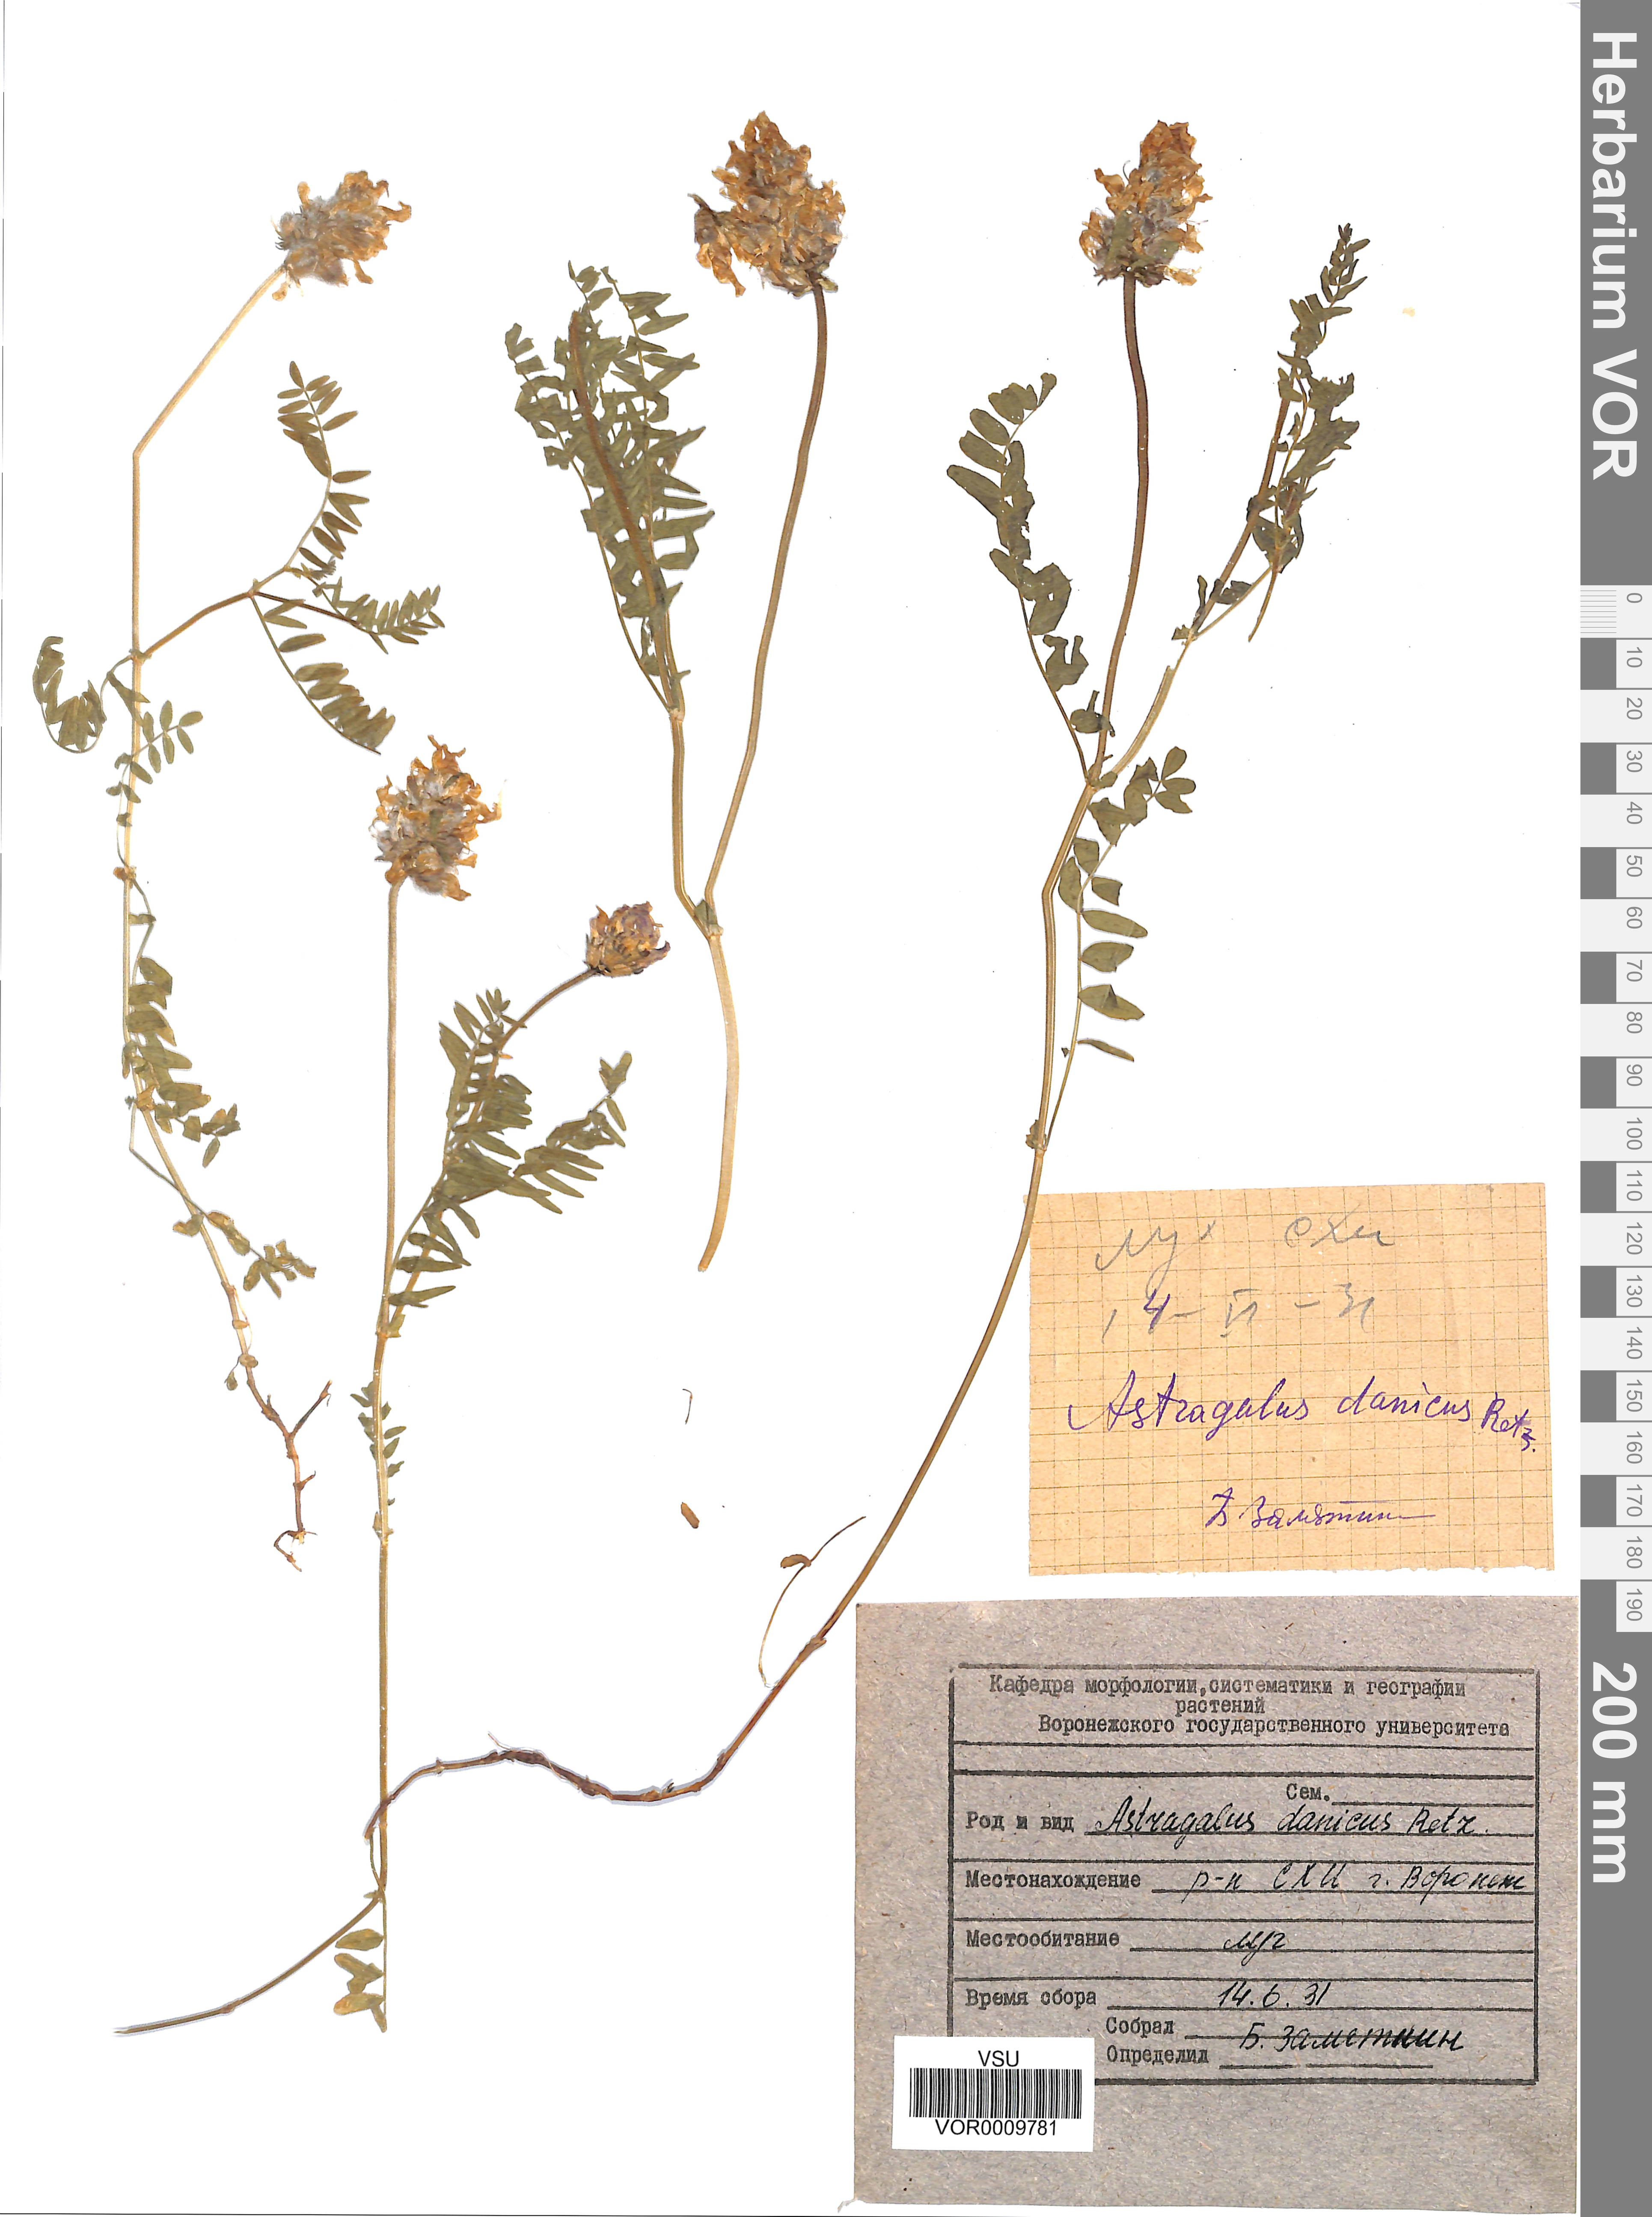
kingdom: Plantae
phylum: Tracheophyta
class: Magnoliopsida
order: Fabales
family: Fabaceae
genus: Astragalus
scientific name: Astragalus danicus
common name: Purple milk-vetch
